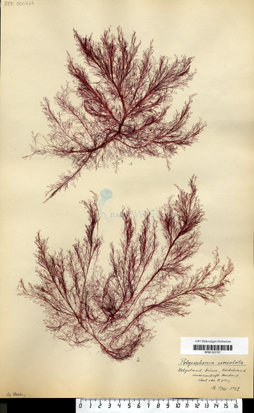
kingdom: Plantae
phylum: Rhodophyta
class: Florideophyceae
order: Ceramiales
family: Rhodomelaceae
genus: Polysiphonia
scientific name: Polysiphonia stricta
